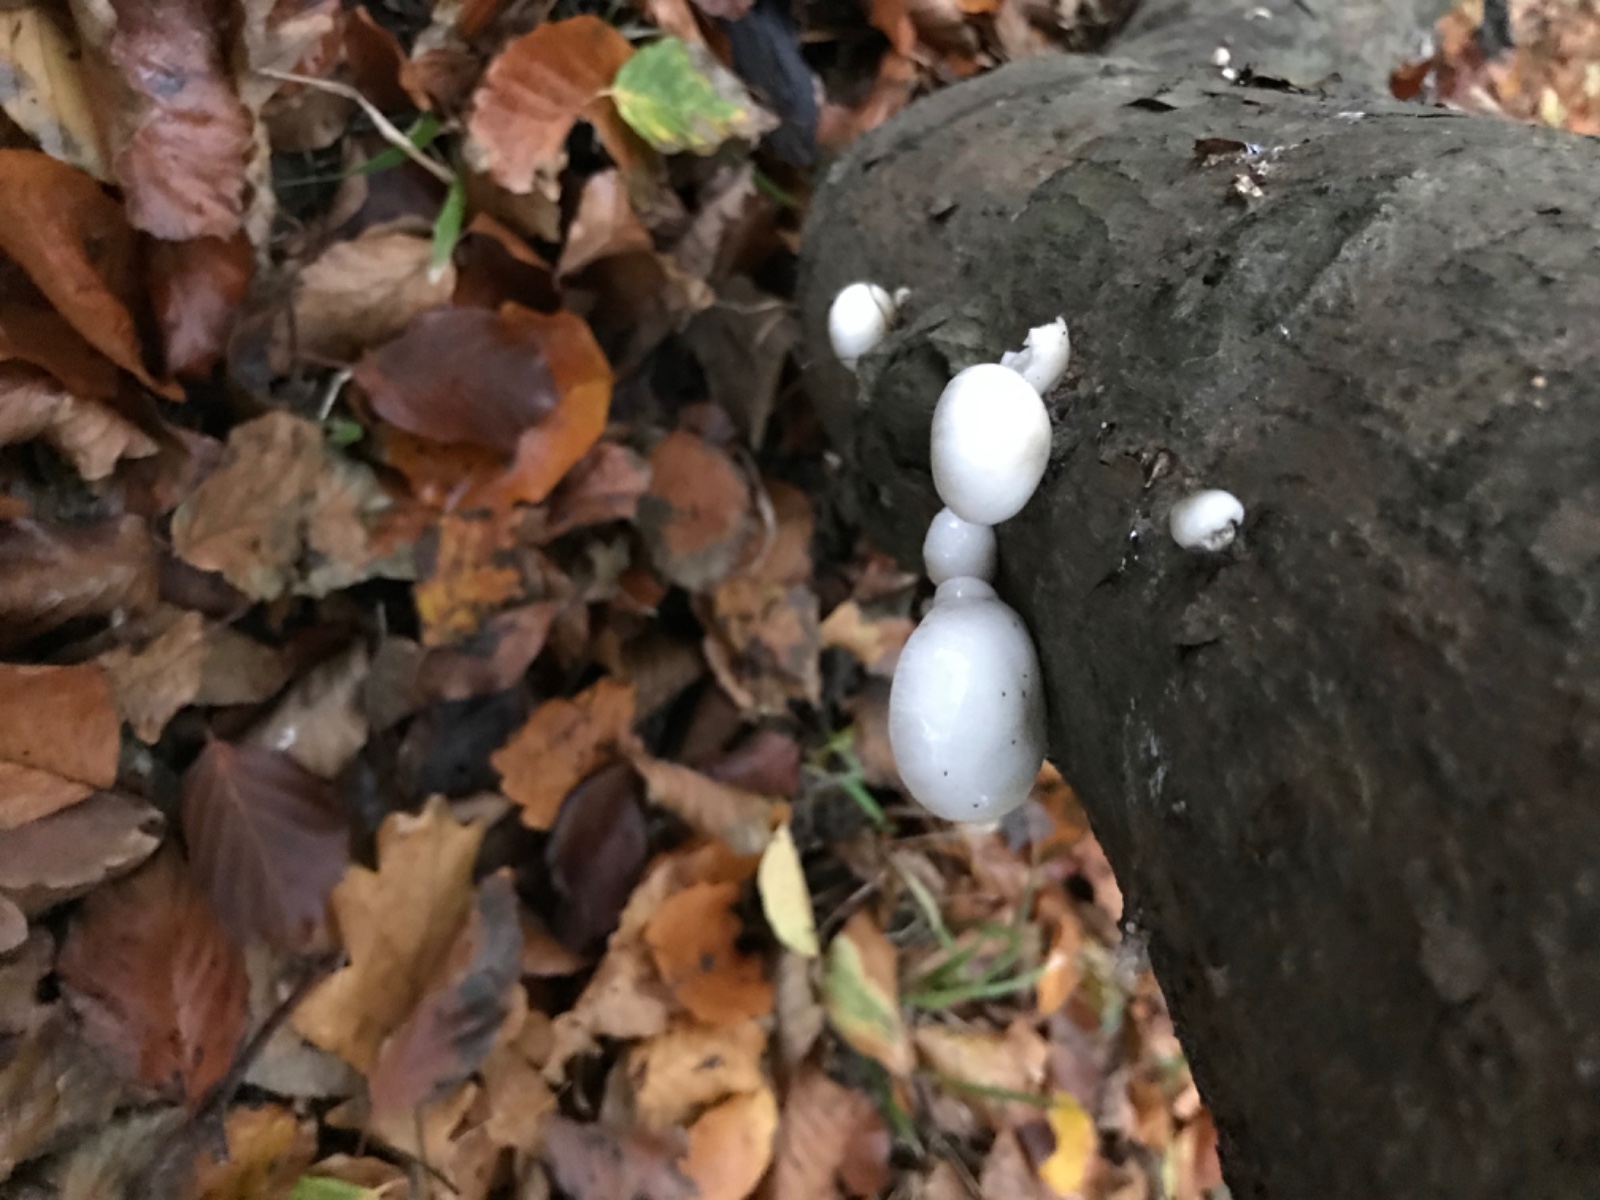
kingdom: Fungi
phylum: Basidiomycota
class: Agaricomycetes
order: Agaricales
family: Physalacriaceae
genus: Mucidula
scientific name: Mucidula mucida
